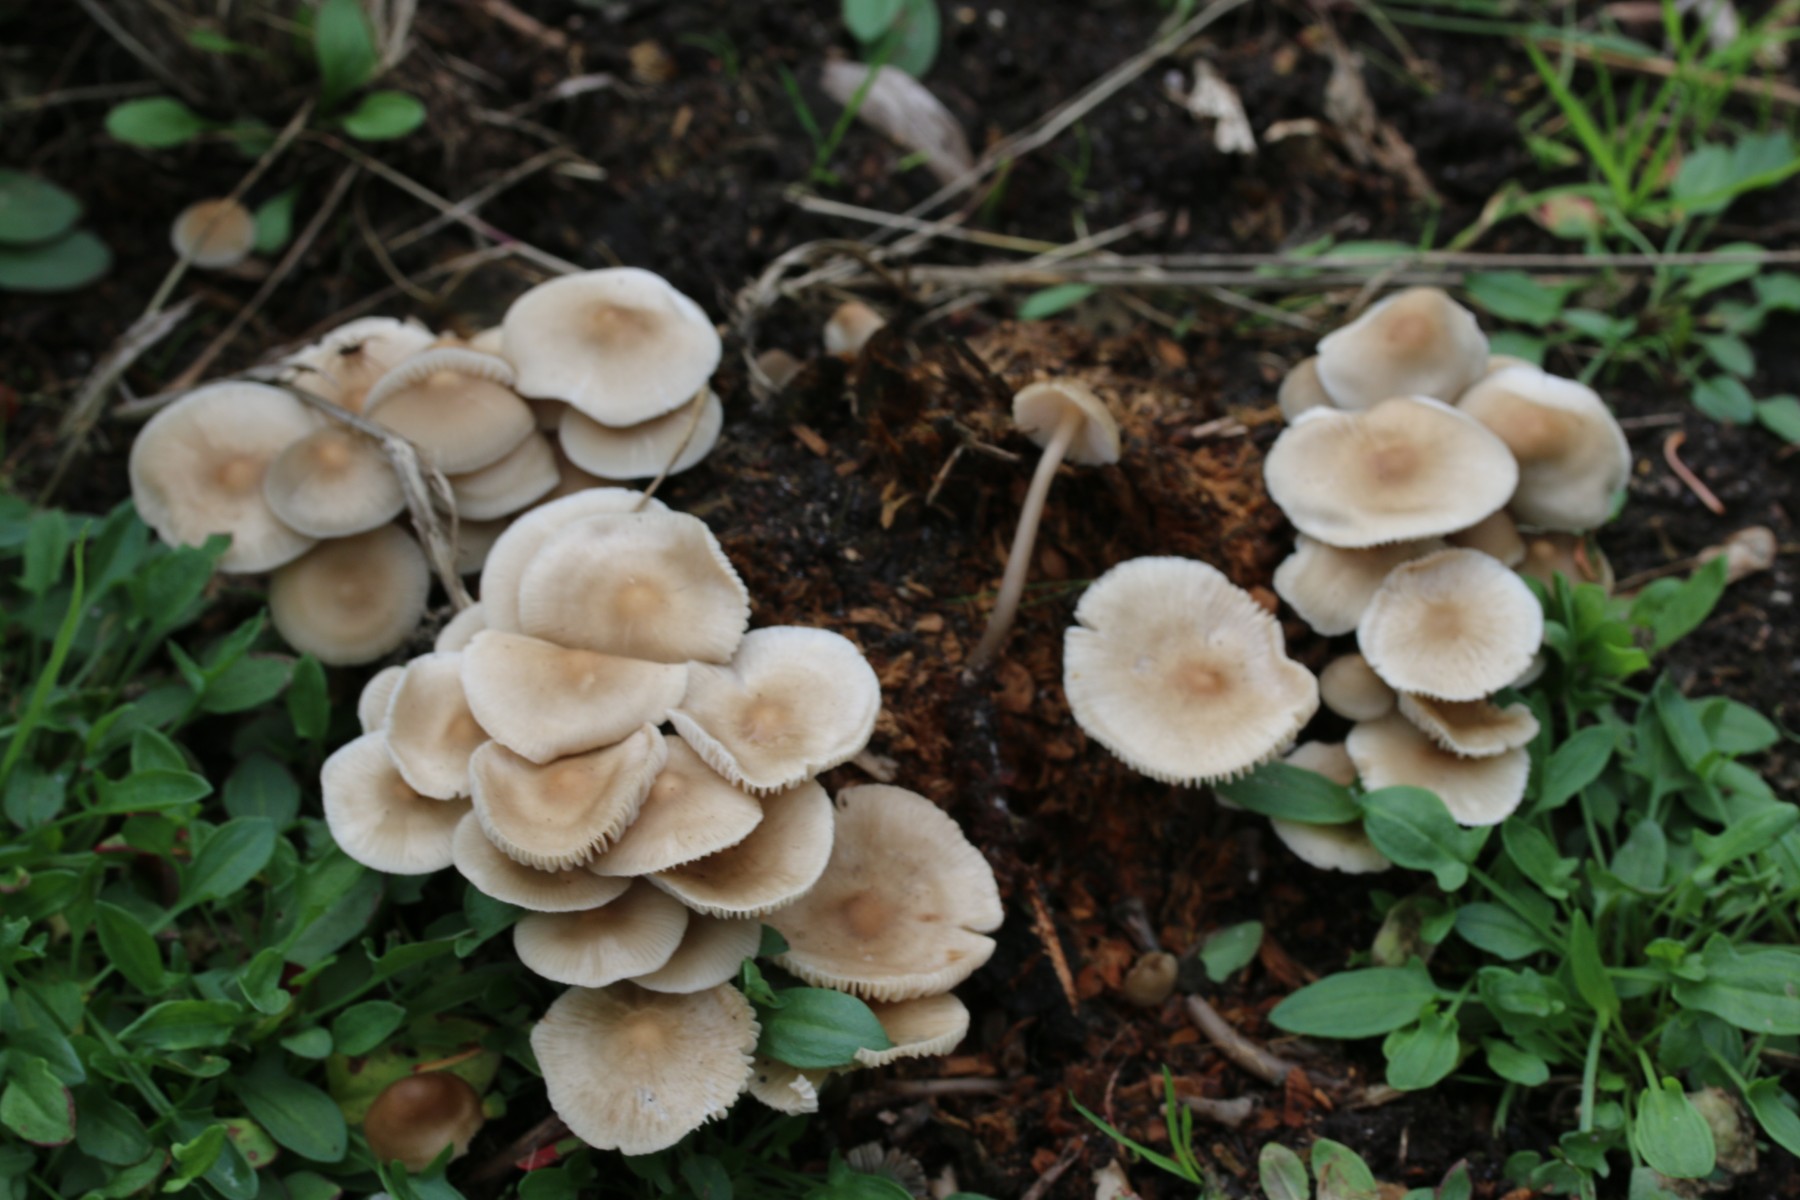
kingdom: Fungi
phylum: Basidiomycota
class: Agaricomycetes
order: Agaricales
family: Mycenaceae
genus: Mycena
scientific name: Mycena galericulata
